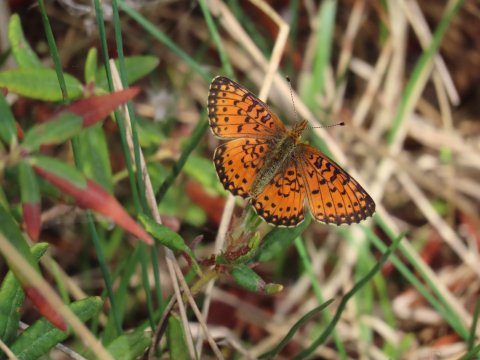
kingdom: Animalia
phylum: Arthropoda
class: Insecta
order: Lepidoptera
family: Nymphalidae
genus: Boloria
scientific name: Boloria selene
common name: Silver-bordered Fritillary
